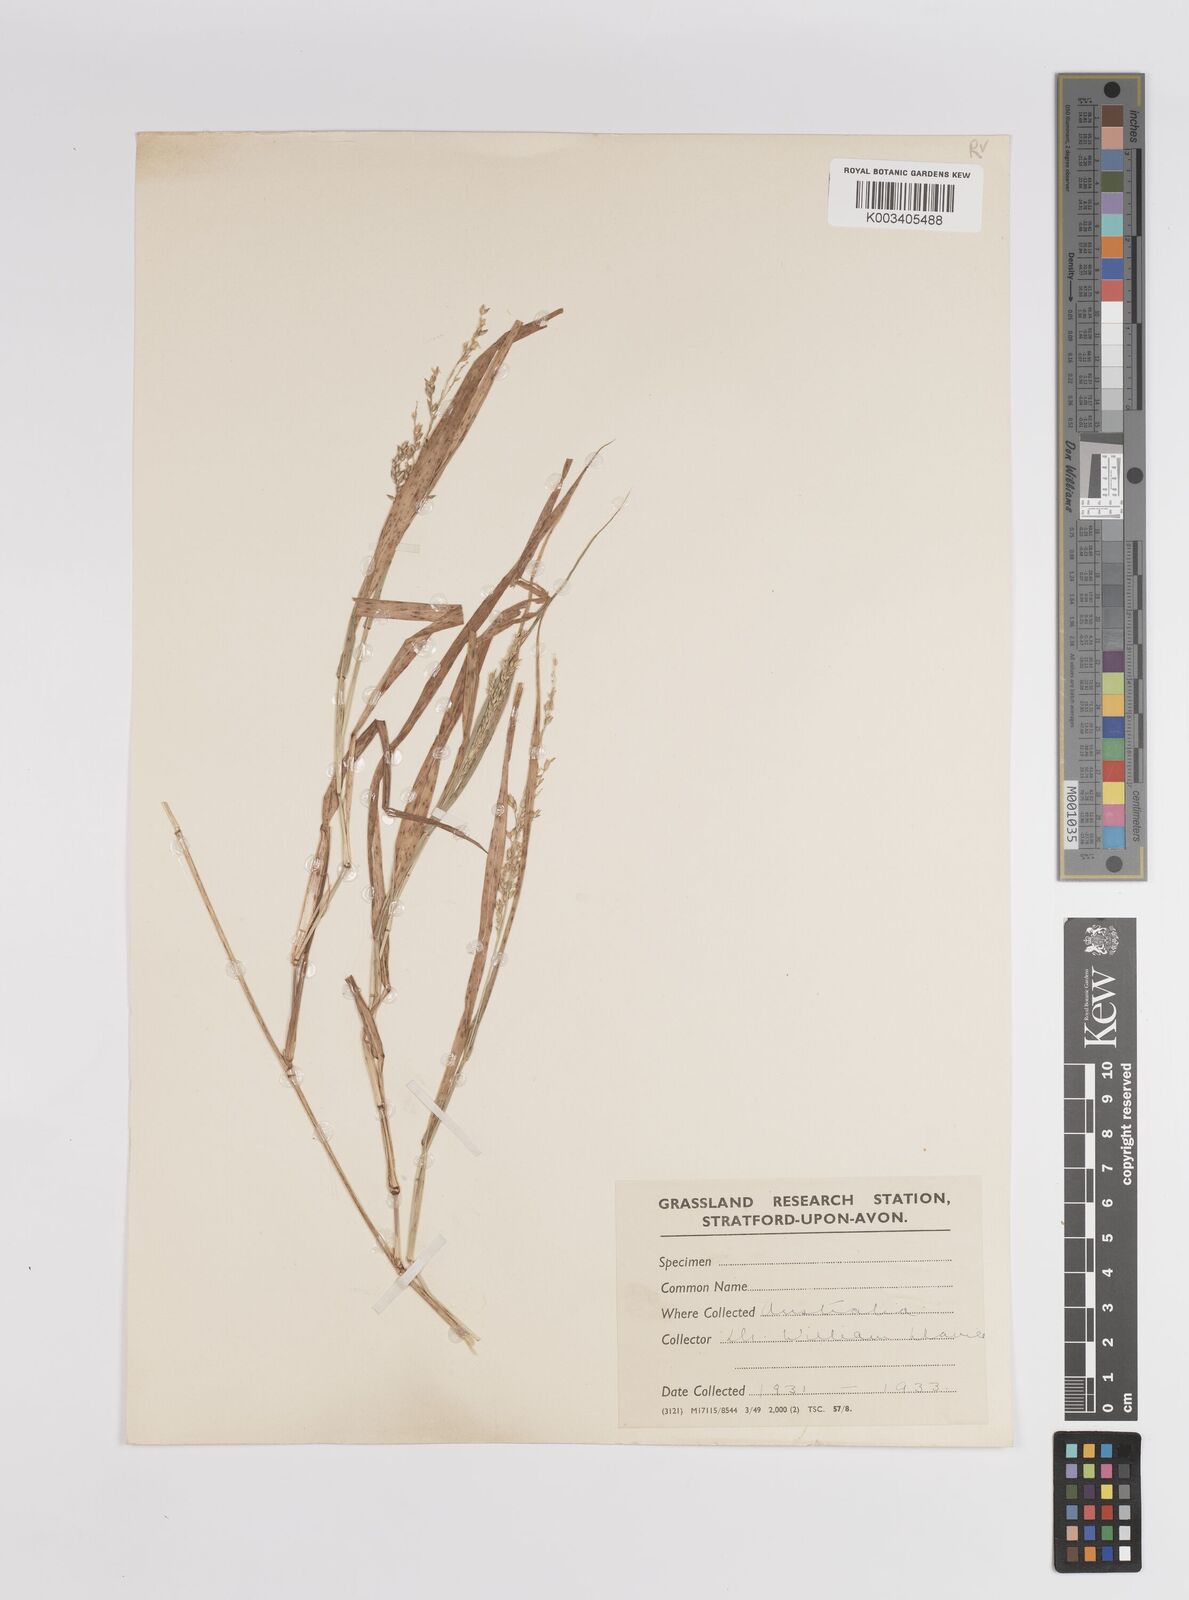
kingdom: Plantae
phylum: Tracheophyta
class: Liliopsida
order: Poales
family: Poaceae
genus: Panicum
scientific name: Panicum
